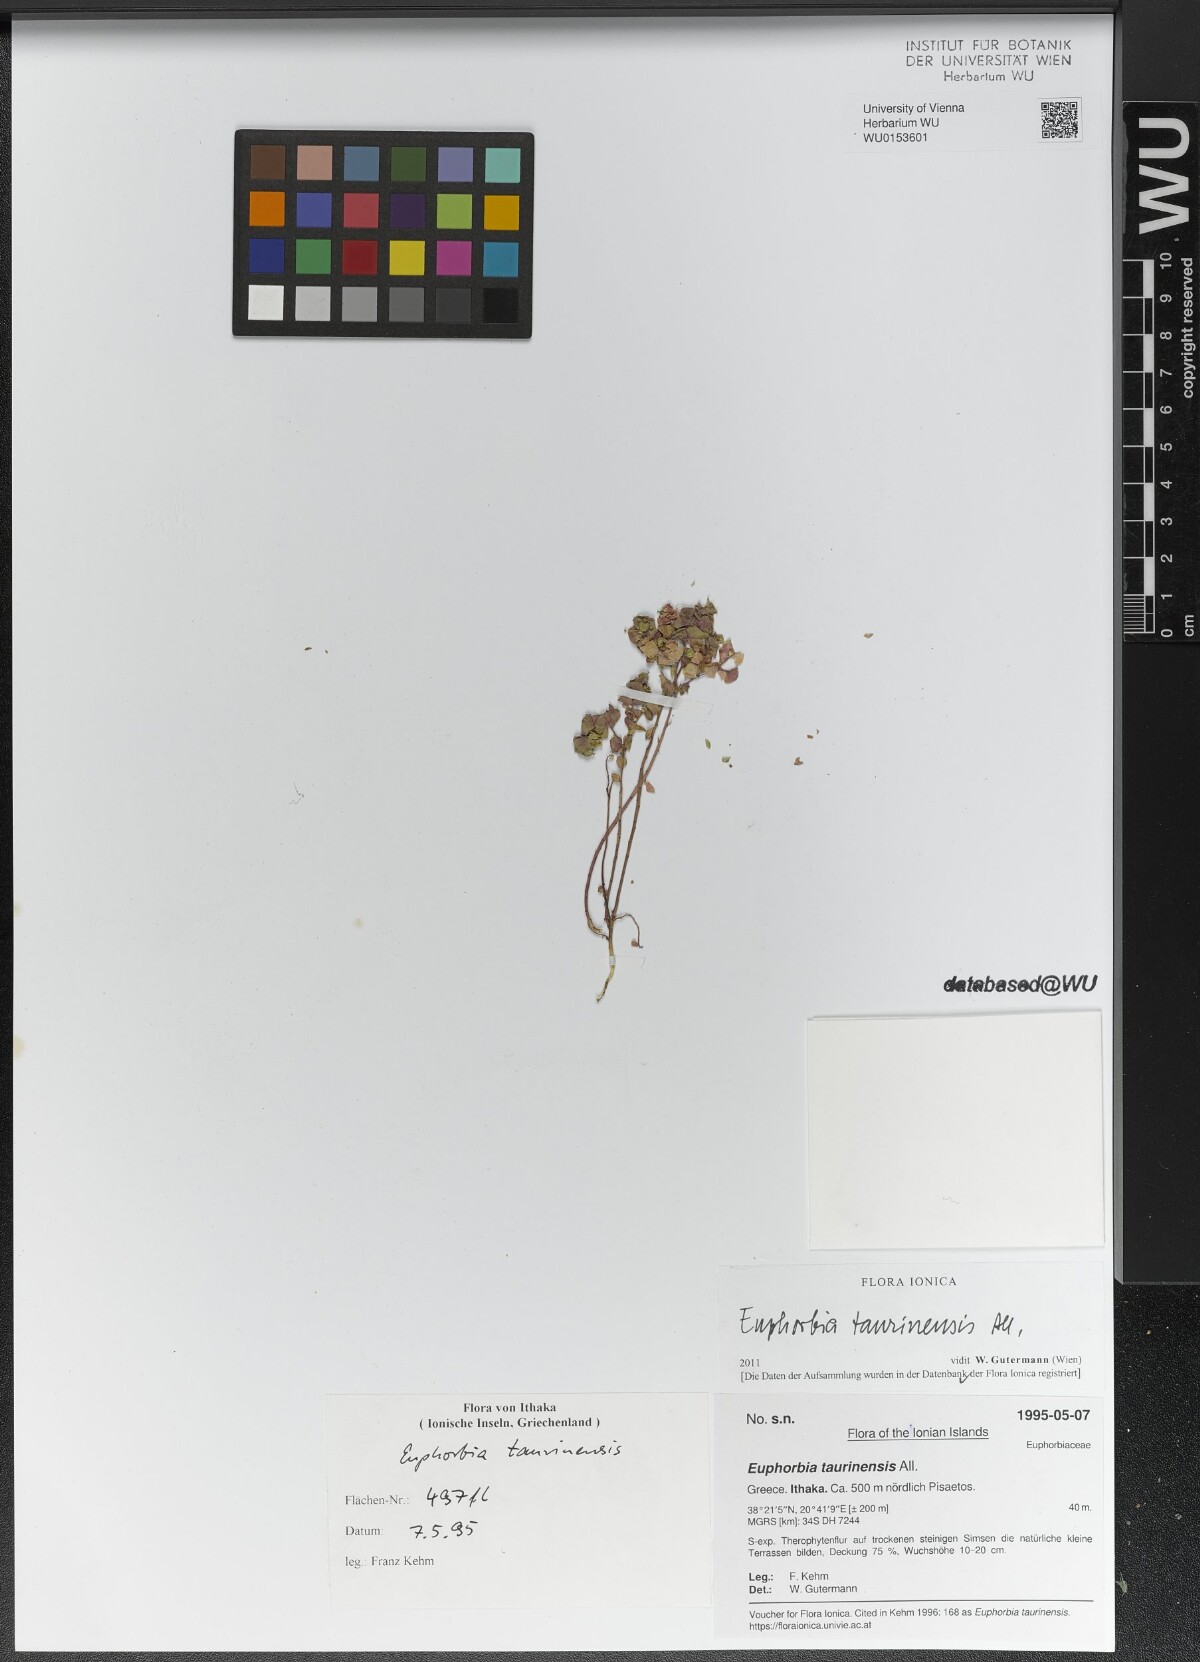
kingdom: Plantae
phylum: Tracheophyta
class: Magnoliopsida
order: Malpighiales
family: Euphorbiaceae
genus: Euphorbia
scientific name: Euphorbia taurinensis
